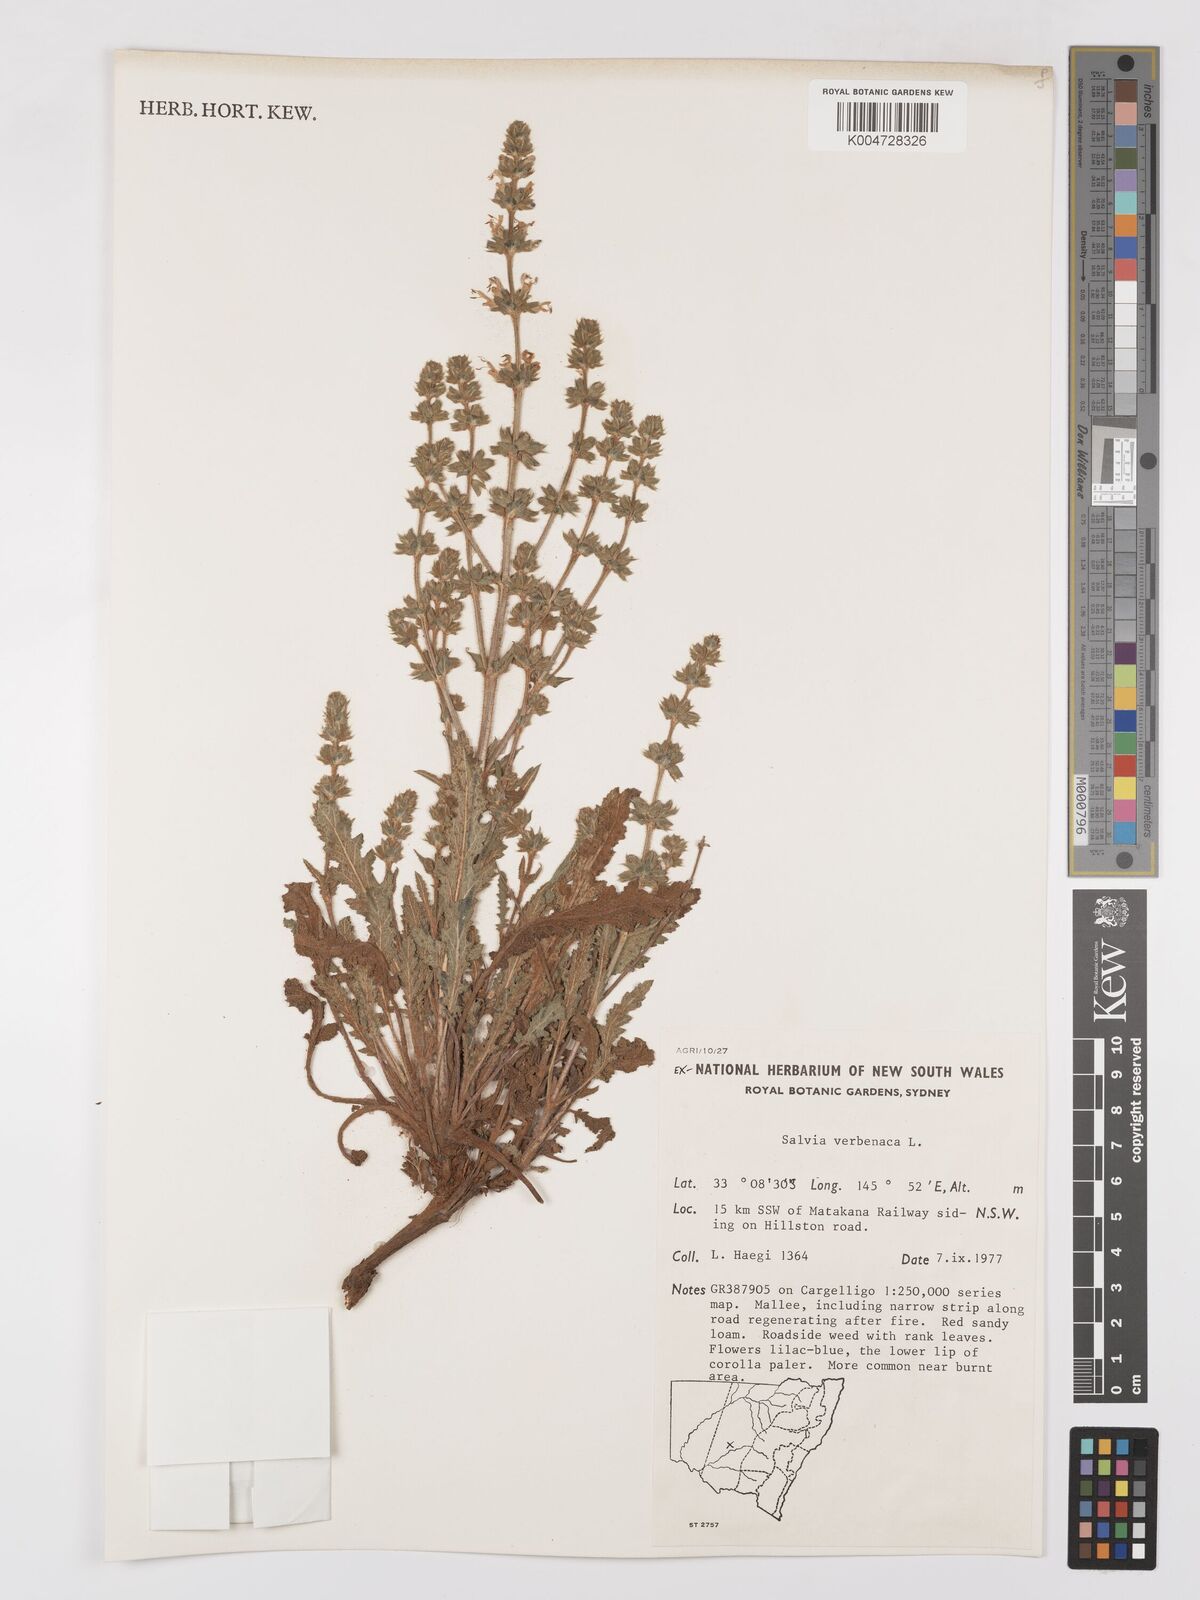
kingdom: Plantae
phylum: Tracheophyta
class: Magnoliopsida
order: Lamiales
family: Lamiaceae
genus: Salvia
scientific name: Salvia verbenaca
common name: Wild clary
